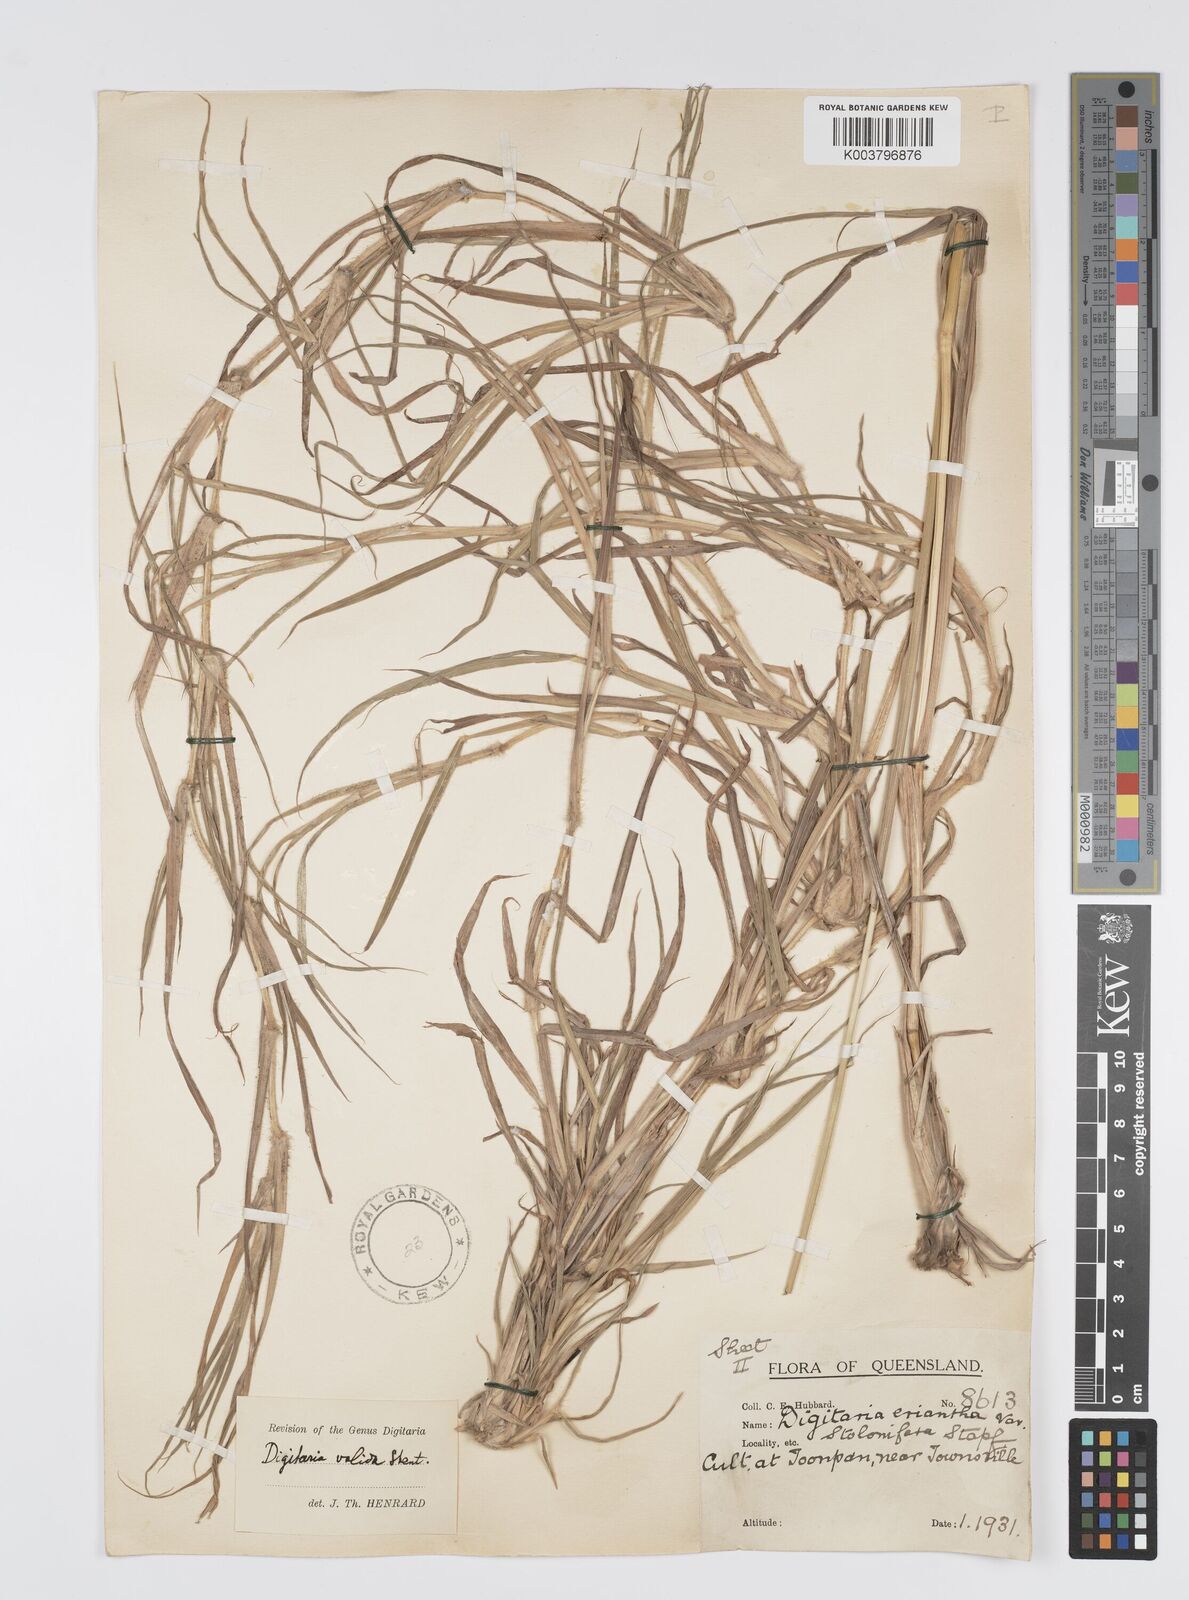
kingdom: Plantae
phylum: Tracheophyta
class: Liliopsida
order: Poales
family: Poaceae
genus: Digitaria
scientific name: Digitaria eriantha
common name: Digitgrass
